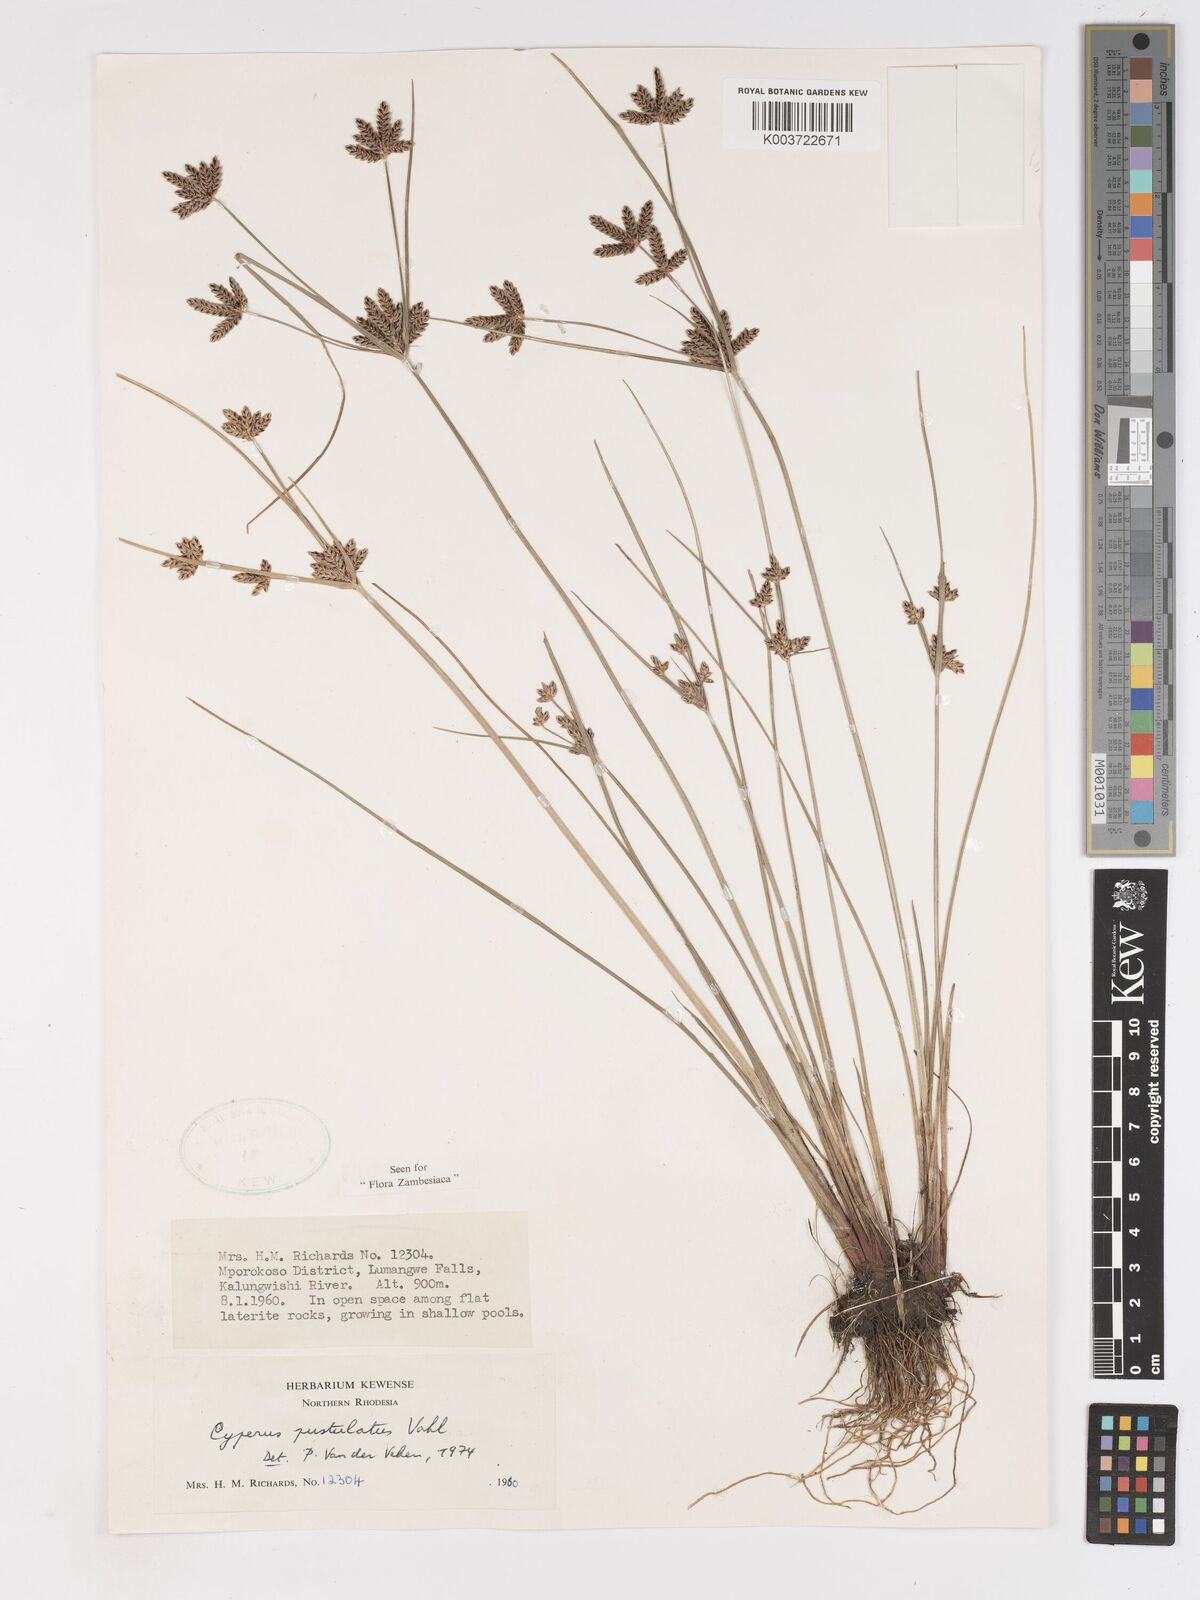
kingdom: Plantae
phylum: Tracheophyta
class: Liliopsida
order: Poales
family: Cyperaceae
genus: Cyperus
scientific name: Cyperus pustulatus
